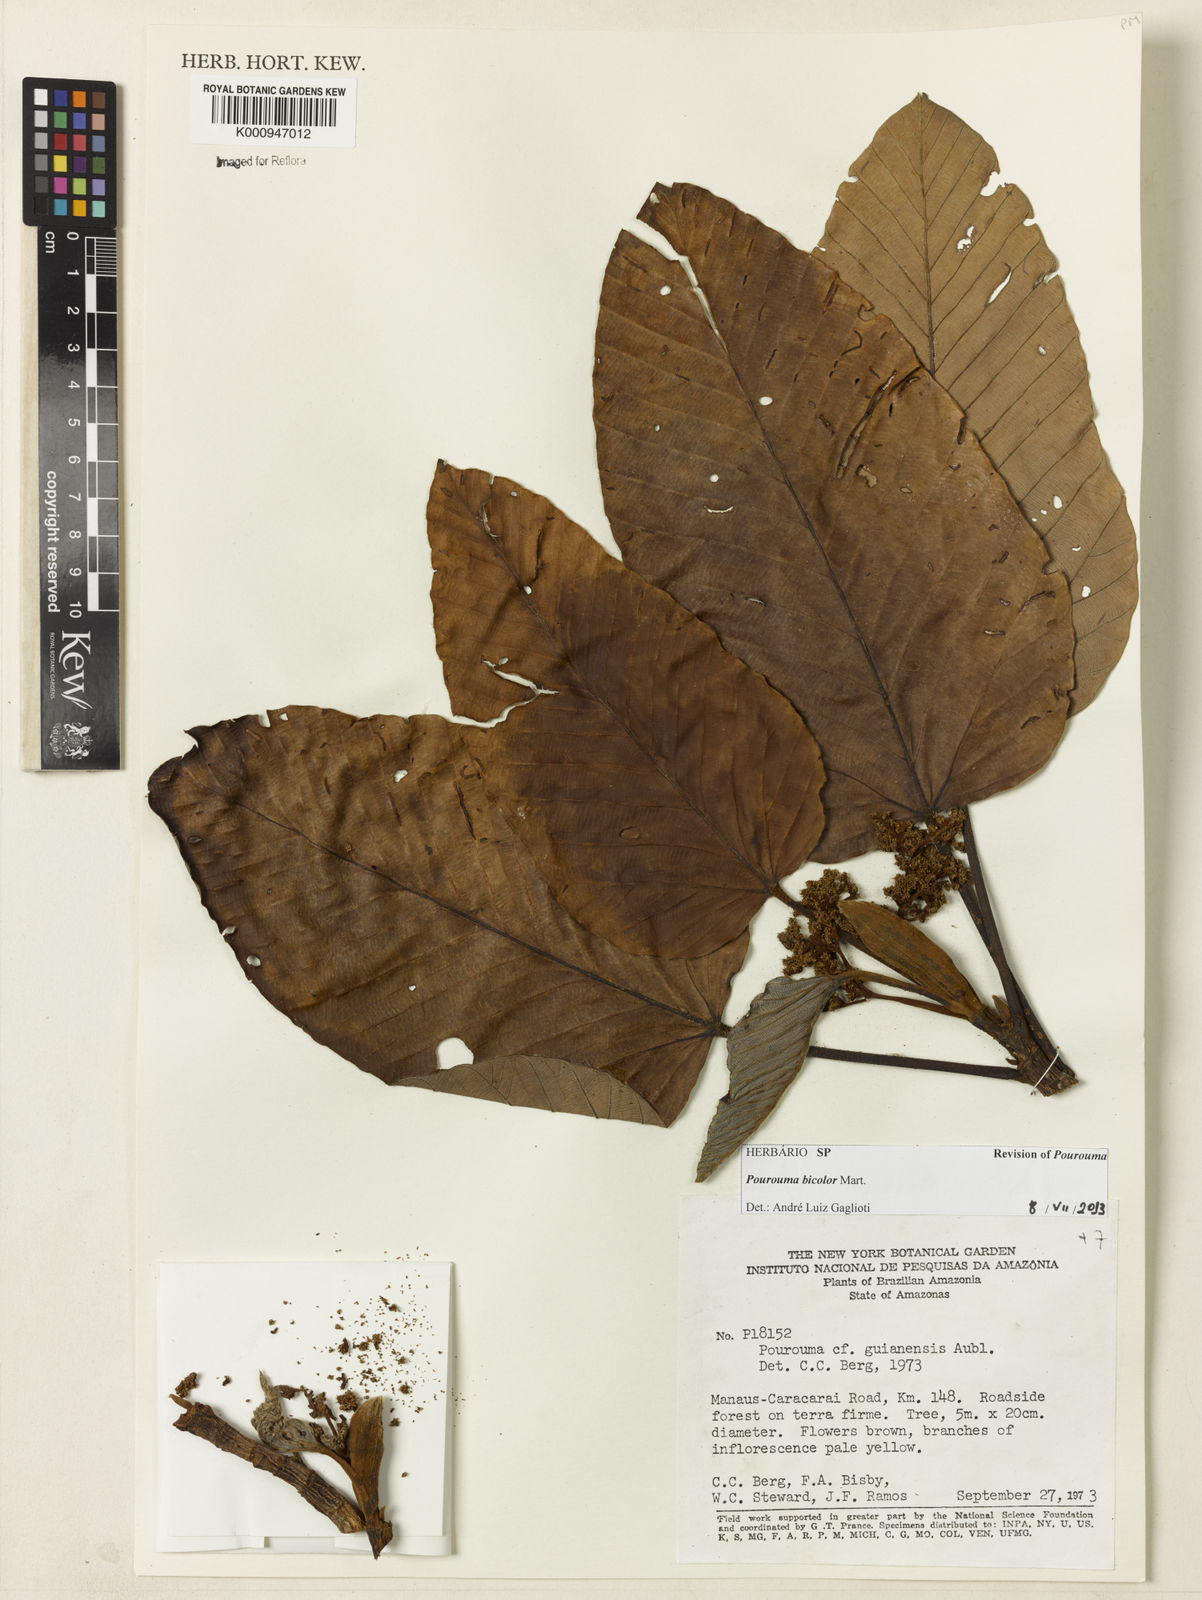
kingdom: Plantae
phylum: Tracheophyta
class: Magnoliopsida
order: Rosales
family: Urticaceae
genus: Pourouma
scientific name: Pourouma bicolor
